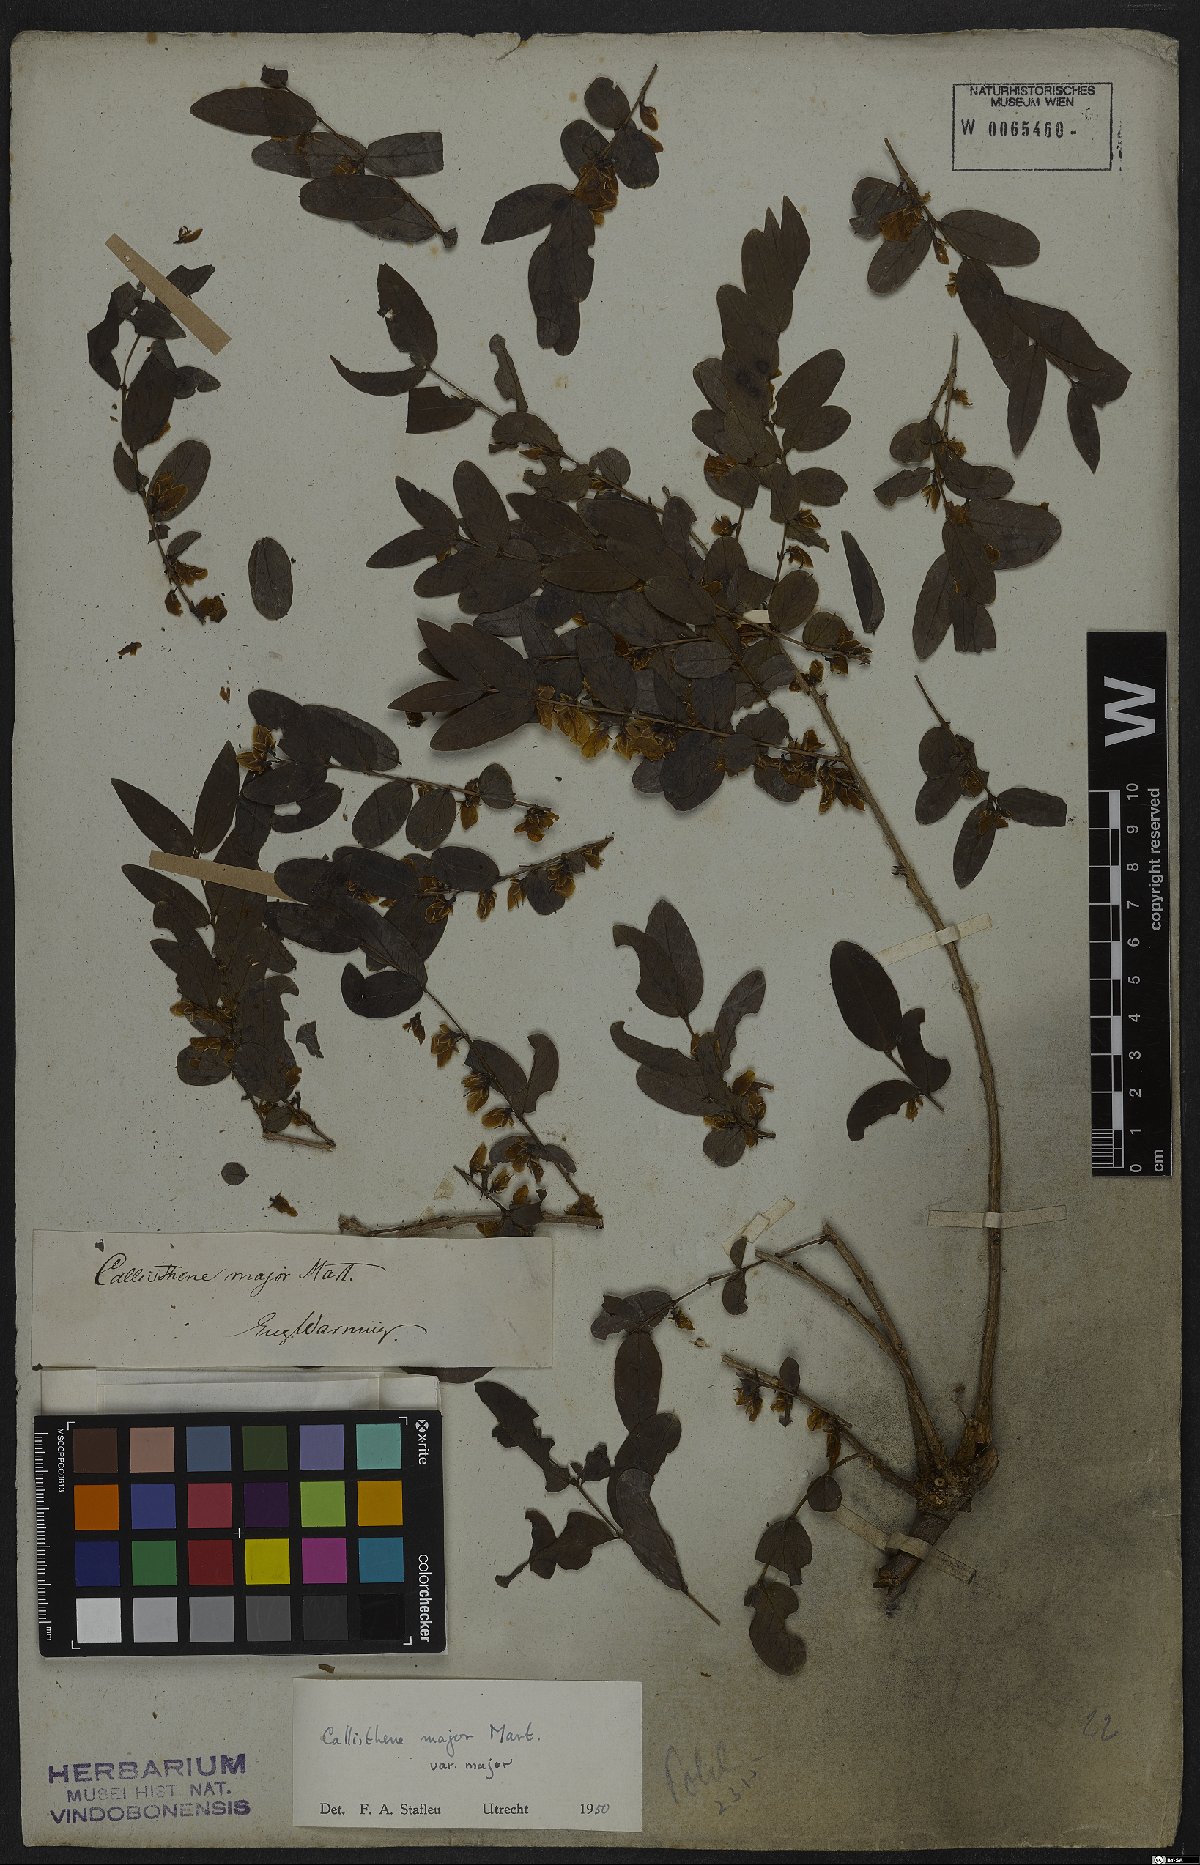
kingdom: Plantae
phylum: Tracheophyta
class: Magnoliopsida
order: Myrtales
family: Vochysiaceae
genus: Callisthene
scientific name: Callisthene major
